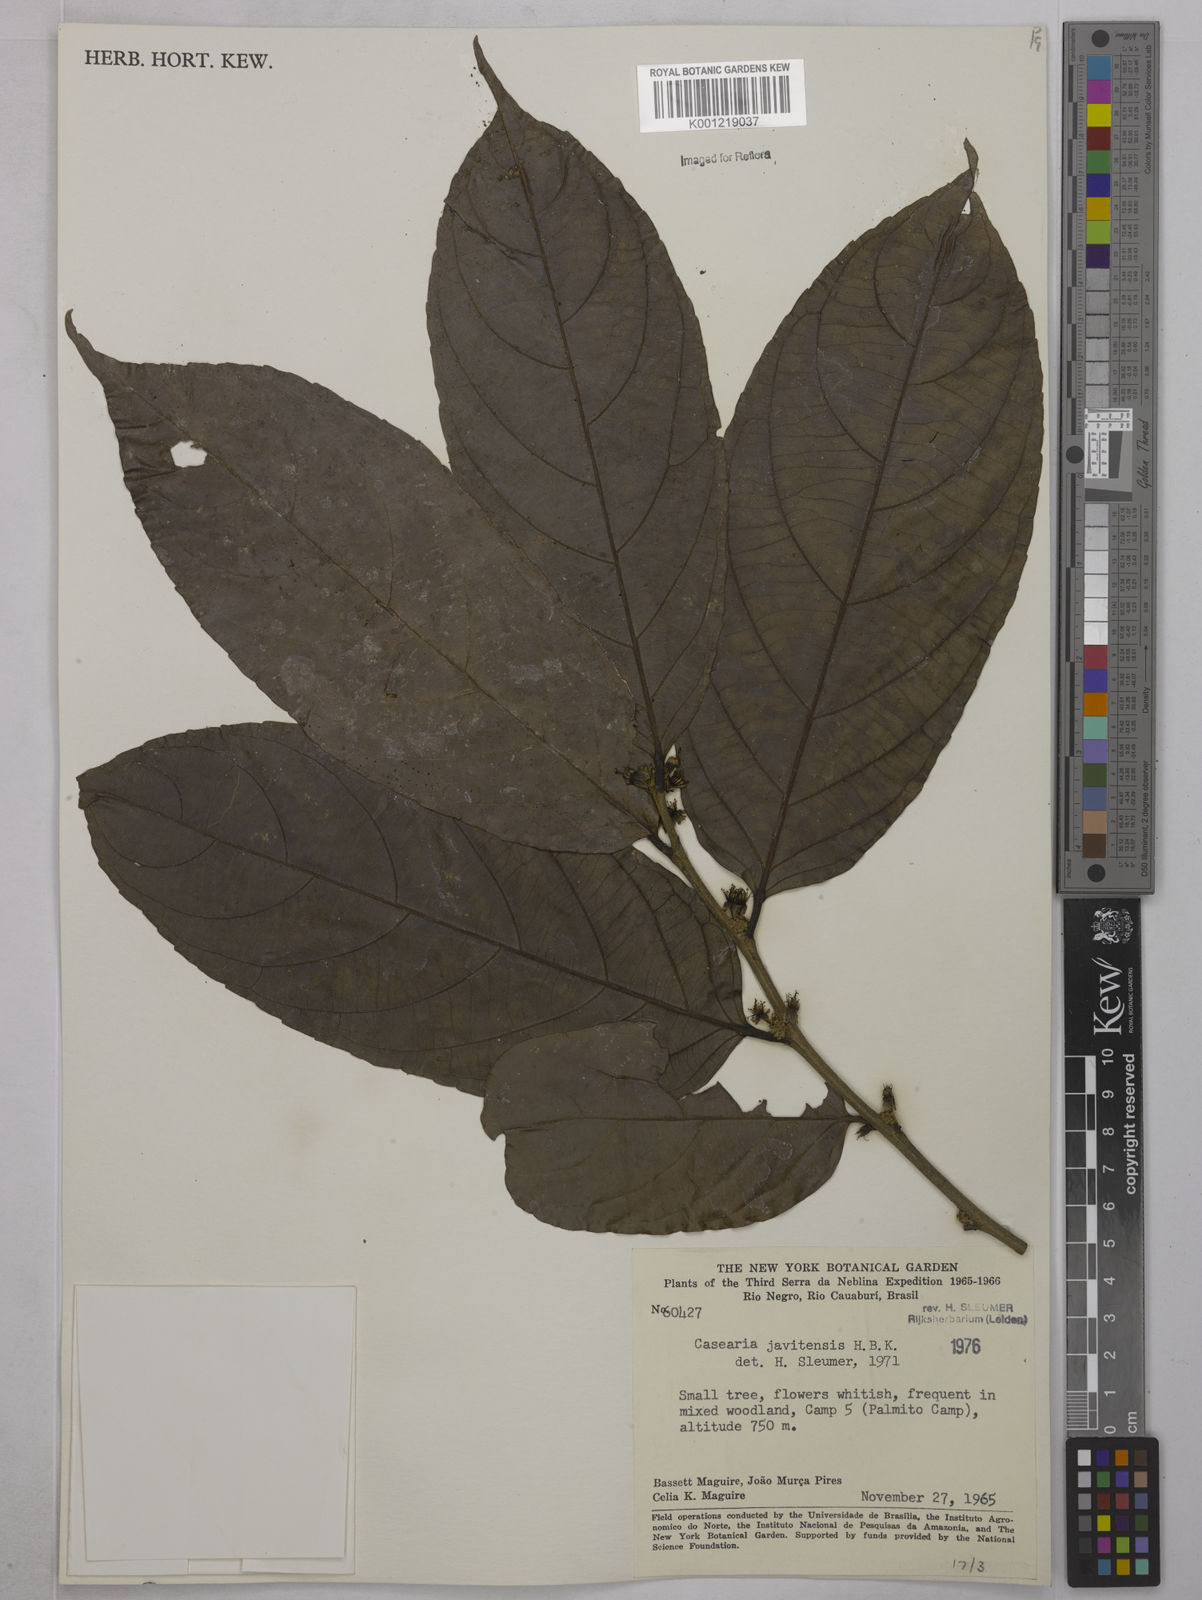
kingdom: Plantae
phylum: Tracheophyta
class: Magnoliopsida
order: Malpighiales
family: Salicaceae
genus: Piparea
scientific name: Piparea multiflora
